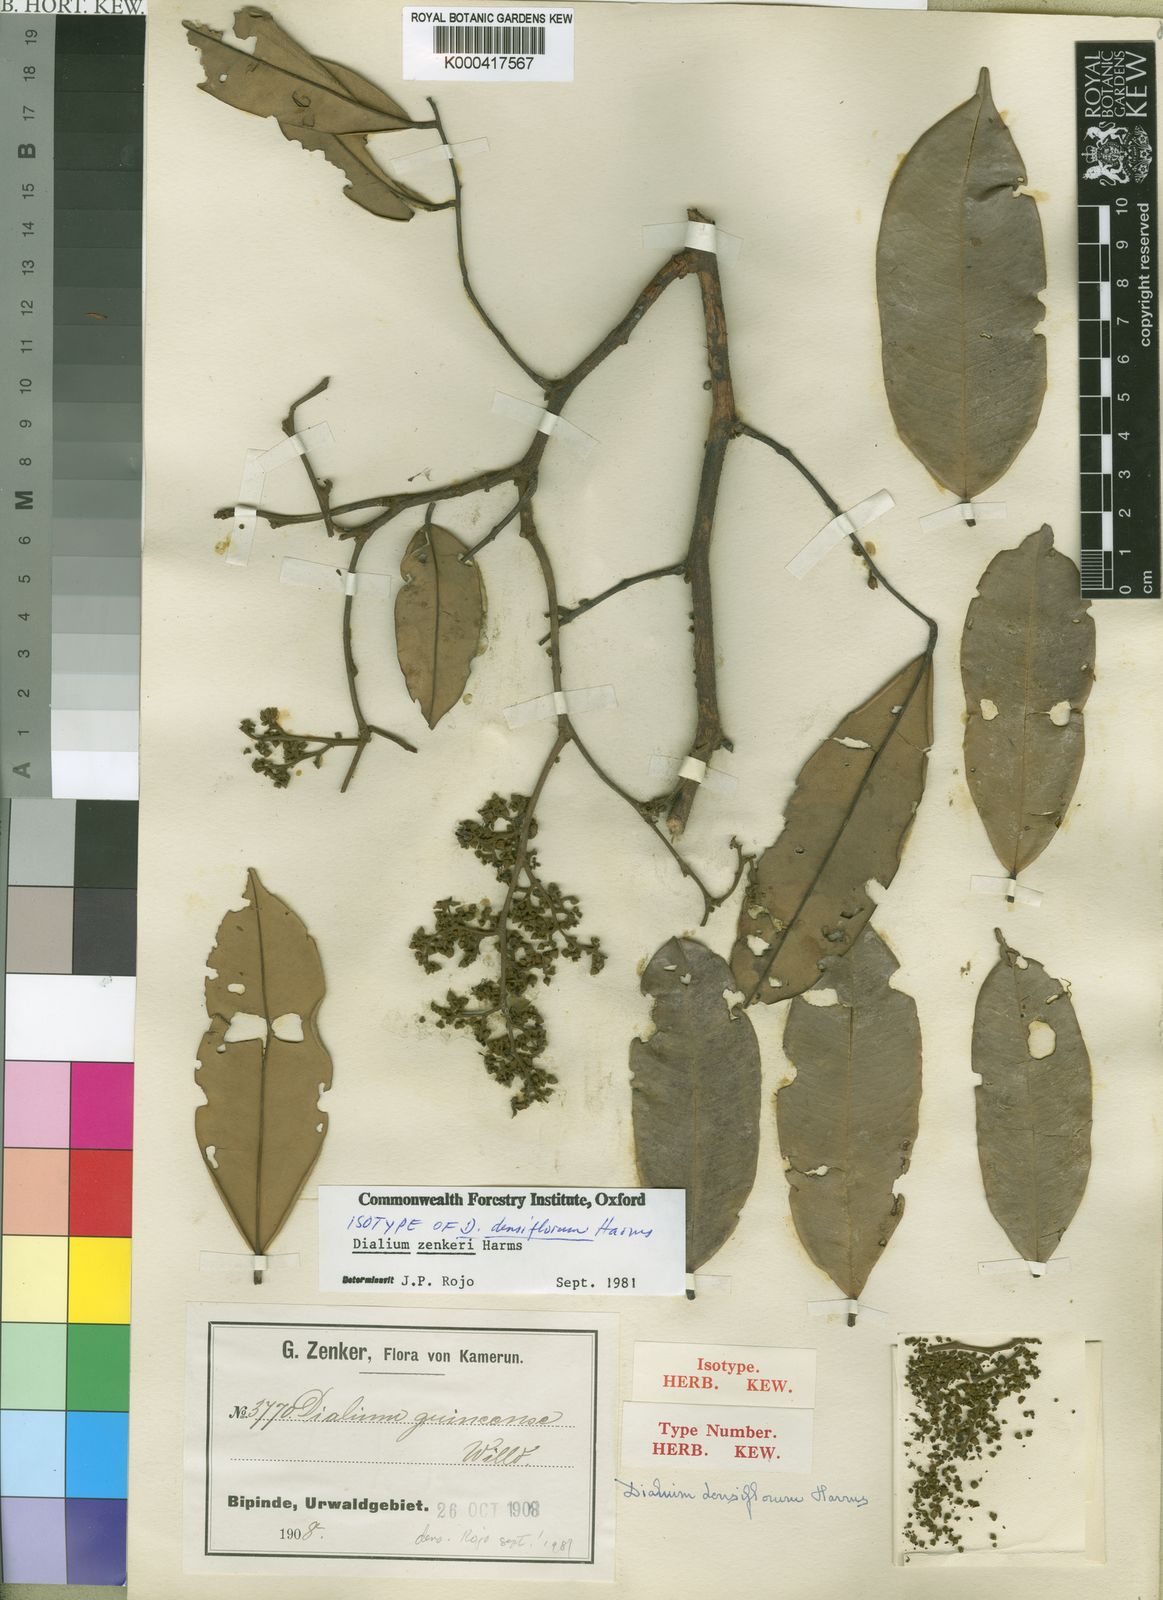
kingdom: Plantae
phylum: Tracheophyta
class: Magnoliopsida
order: Fabales
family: Fabaceae
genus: Dialium
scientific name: Dialium zenkeri
